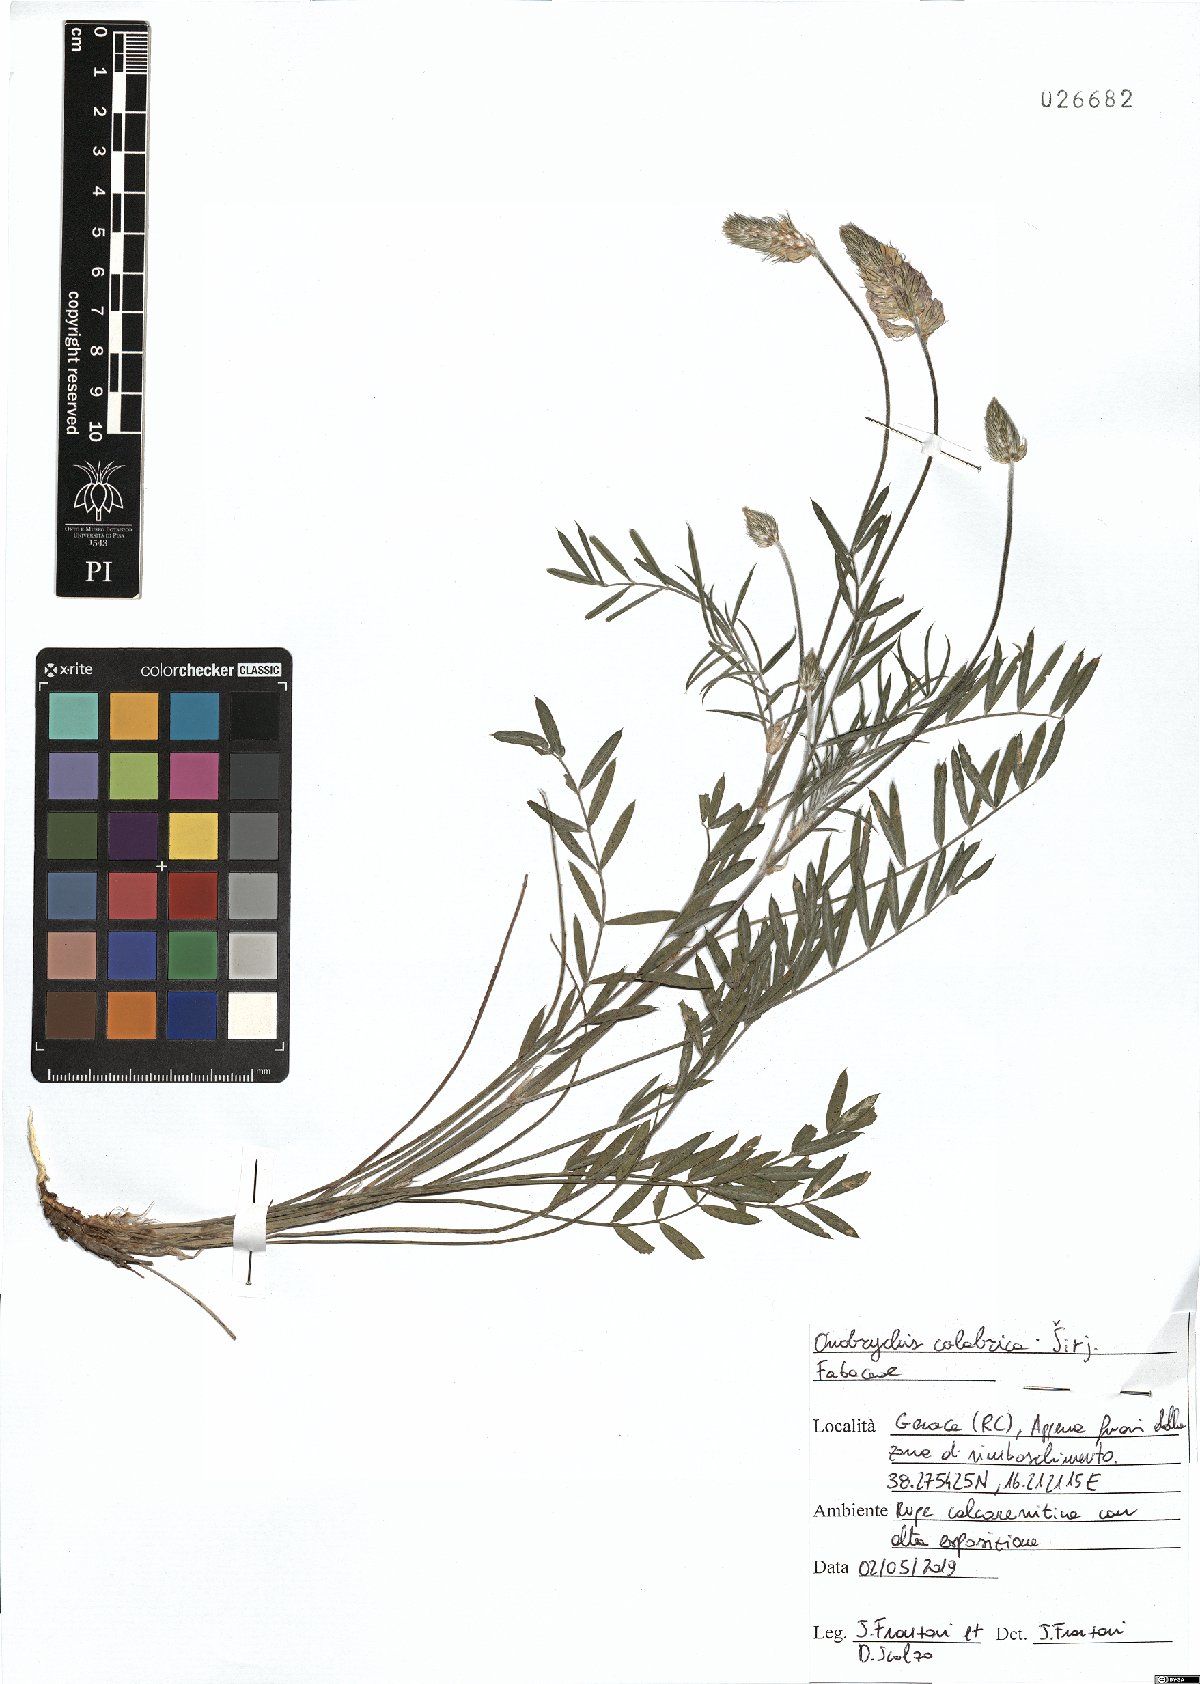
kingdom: Plantae
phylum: Tracheophyta
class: Magnoliopsida
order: Fabales
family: Fabaceae
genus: Onobrychis
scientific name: Onobrychis calabrica
